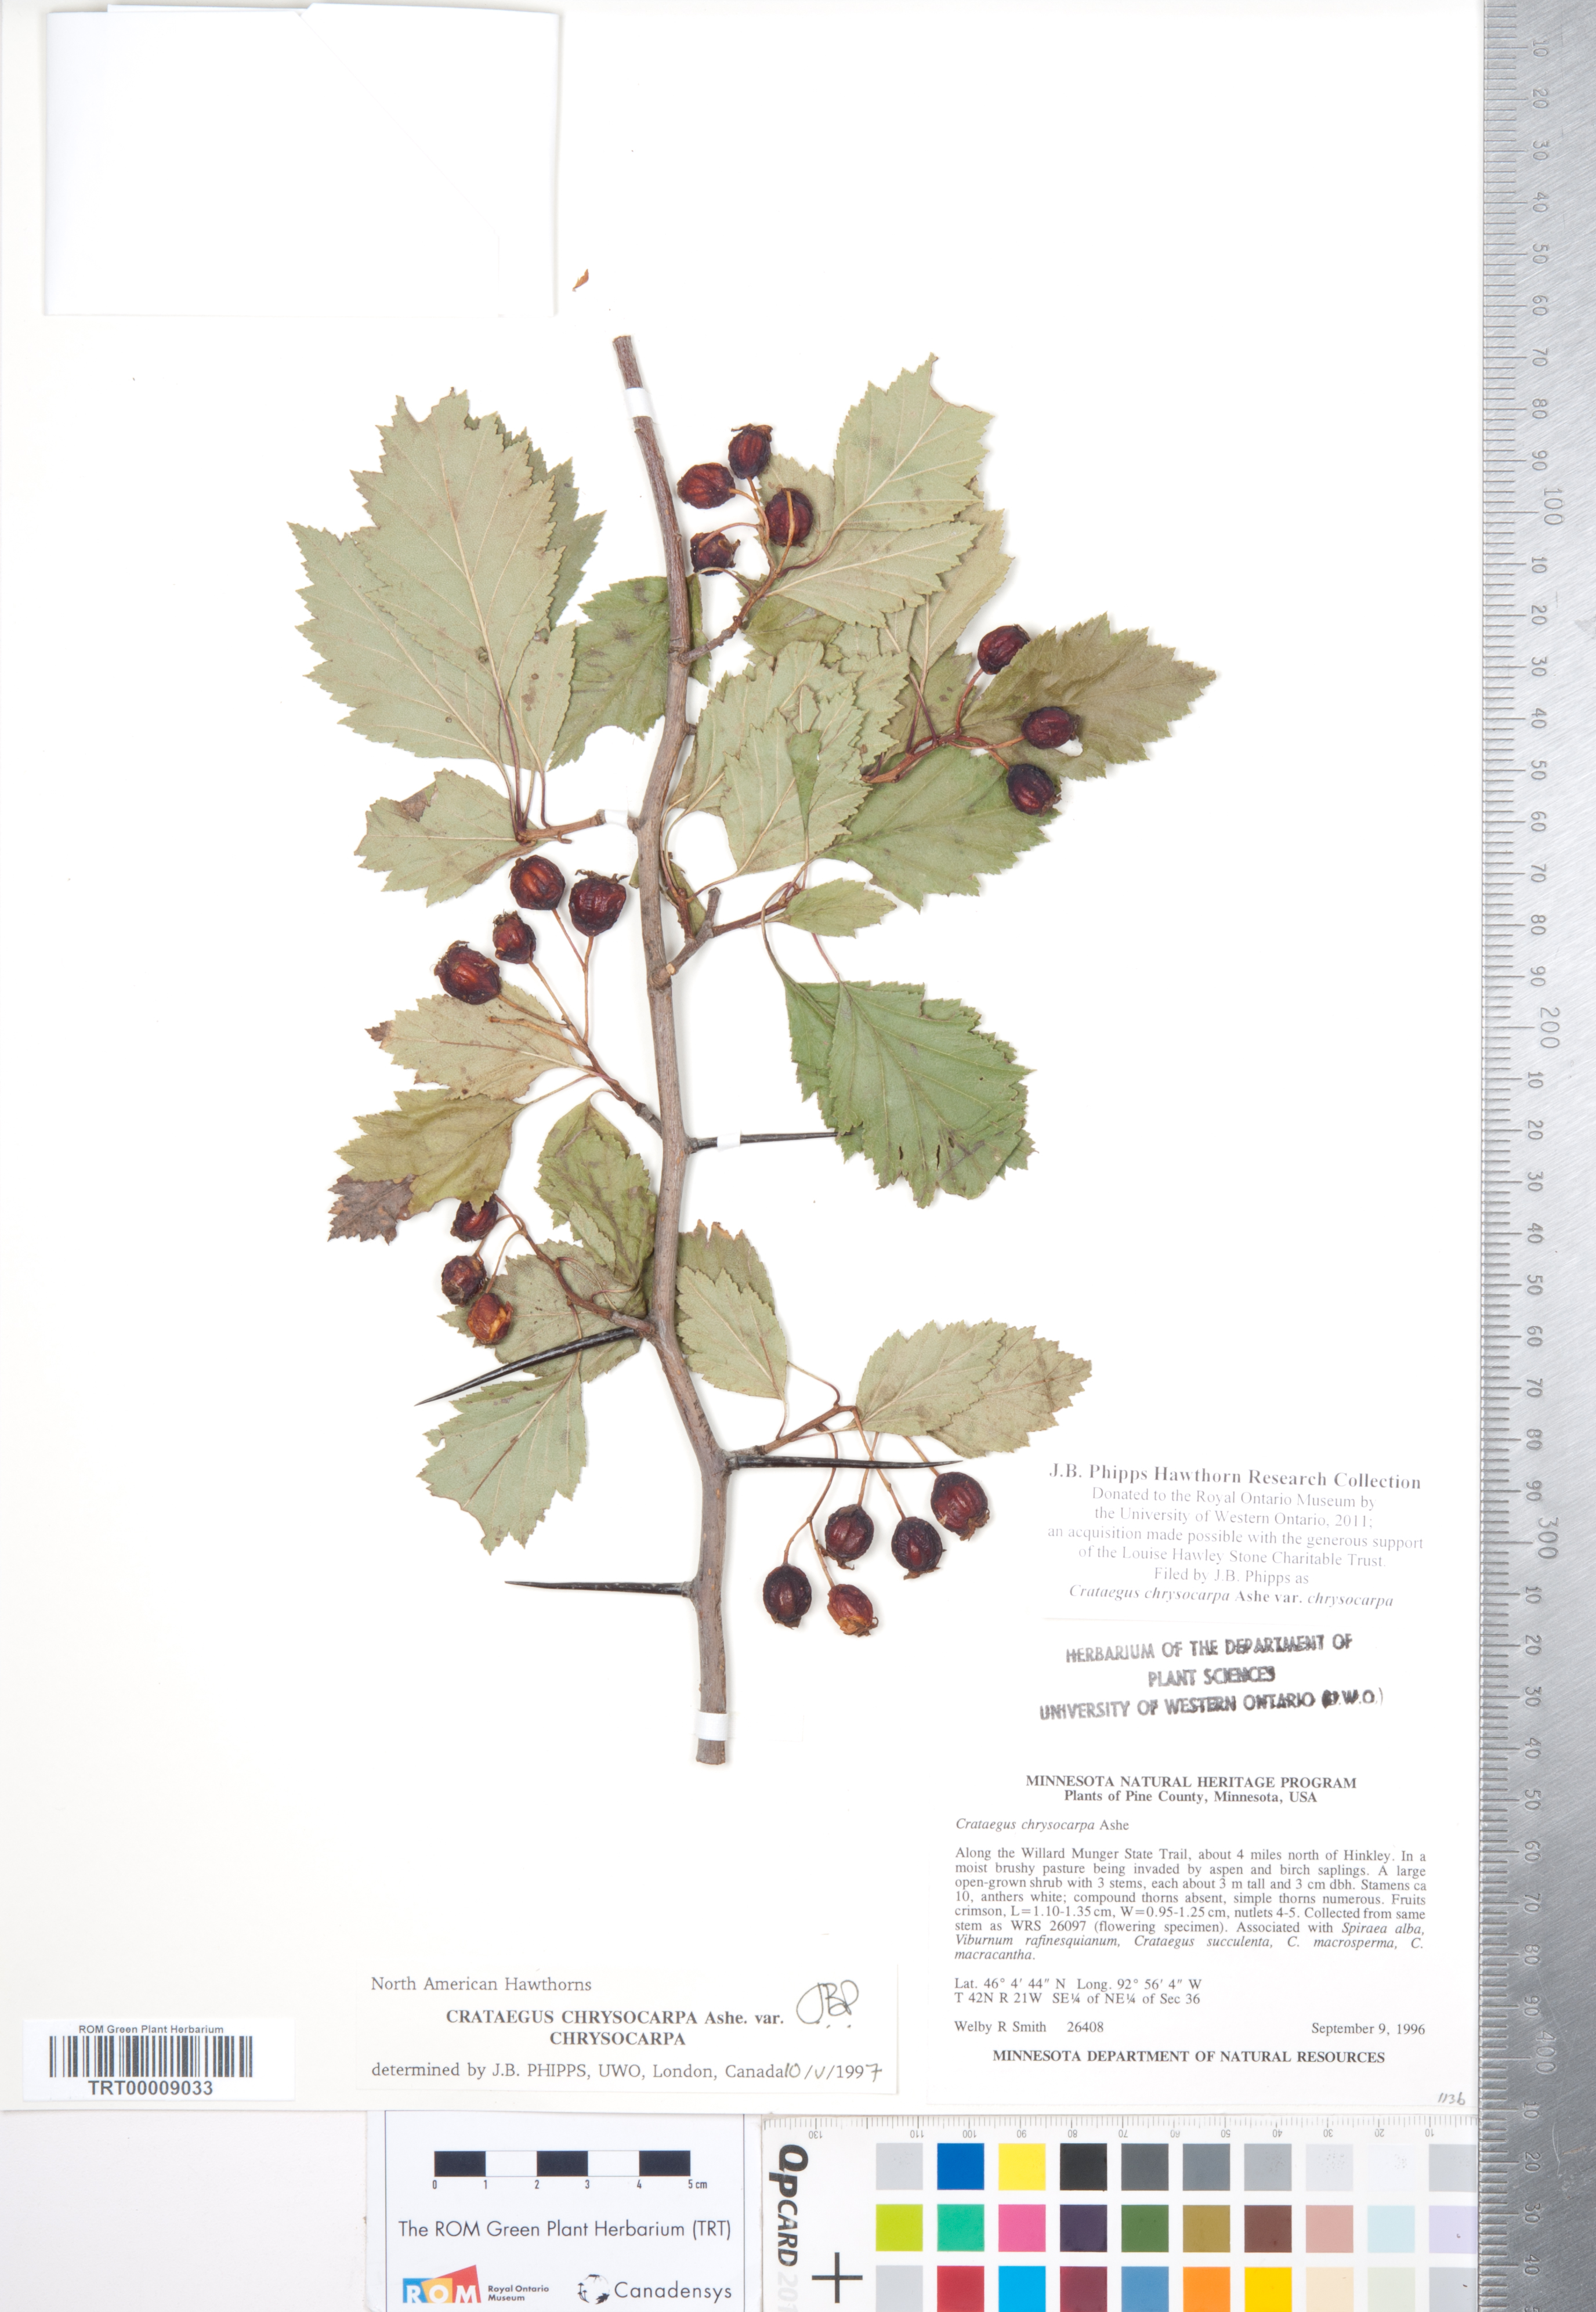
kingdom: Plantae
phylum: Tracheophyta
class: Magnoliopsida
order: Rosales
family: Rosaceae
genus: Crataegus
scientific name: Crataegus chrysocarpa
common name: Fire-berry hawthorn
